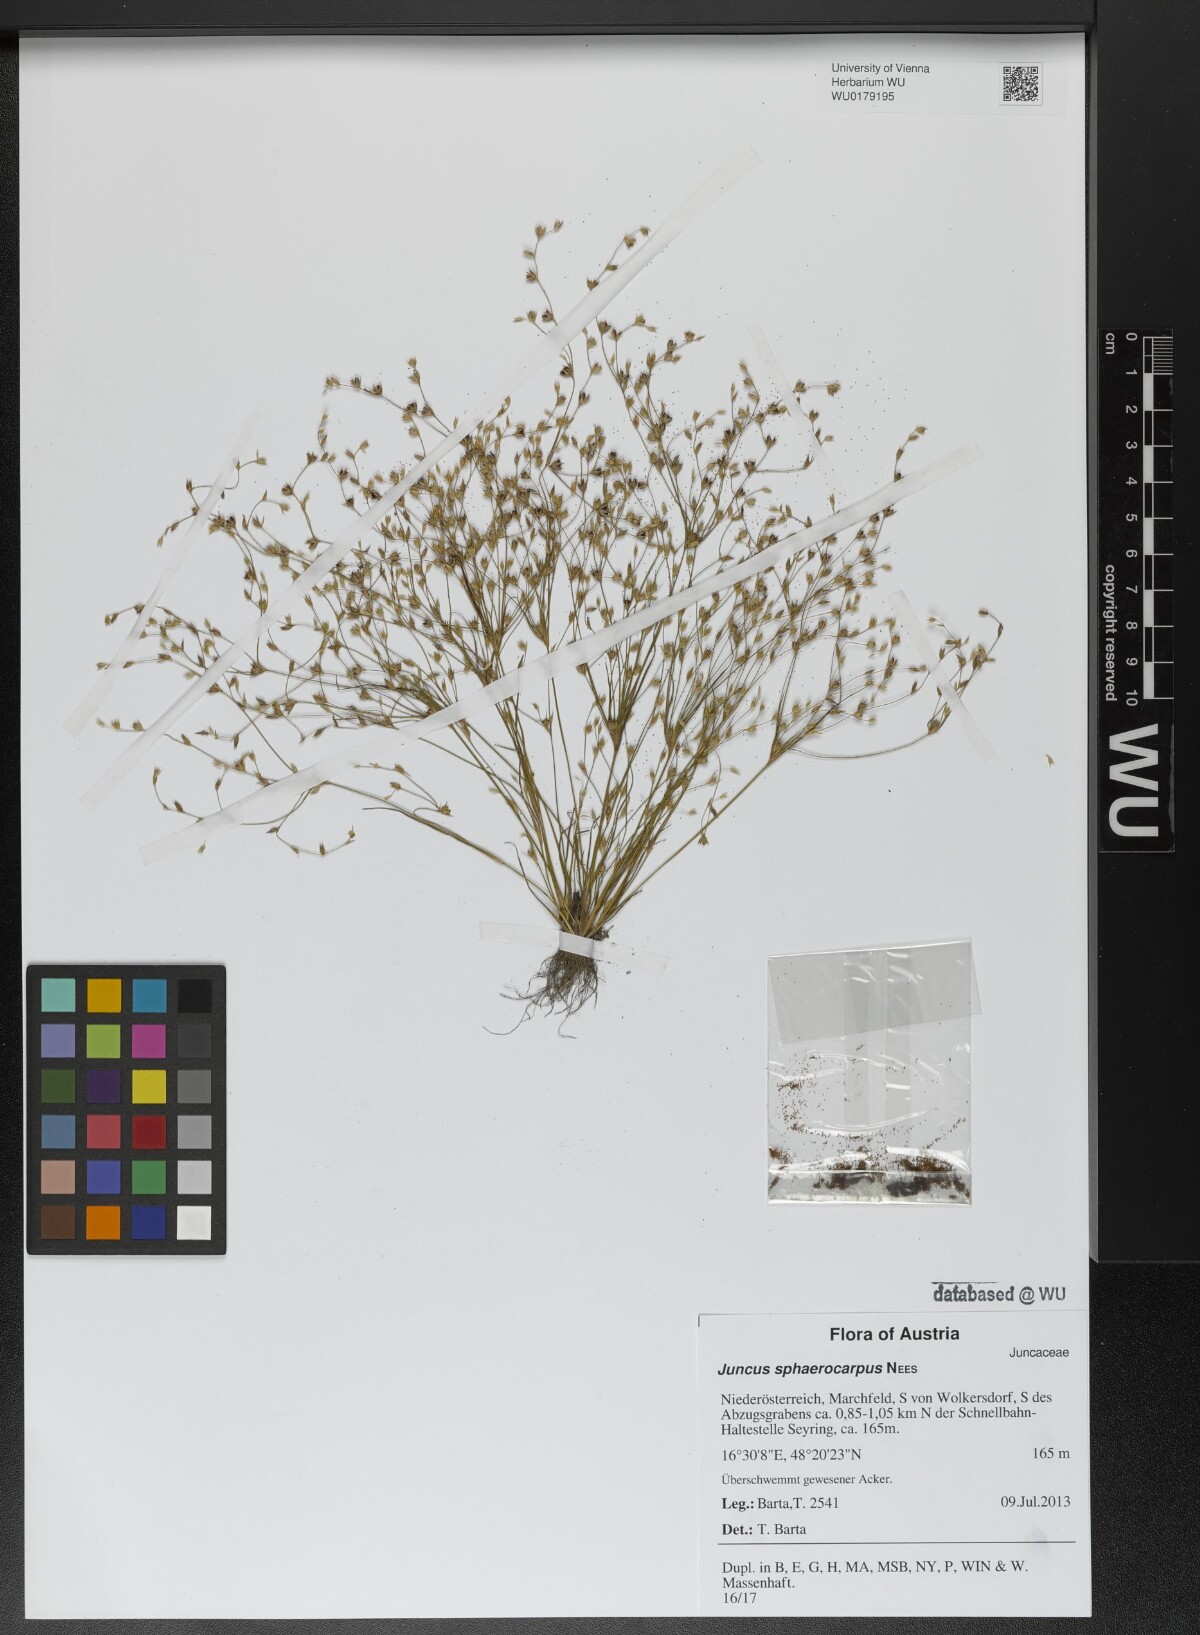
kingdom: Plantae
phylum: Tracheophyta
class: Liliopsida
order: Poales
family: Juncaceae
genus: Juncus
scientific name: Juncus sphaerocarpus
